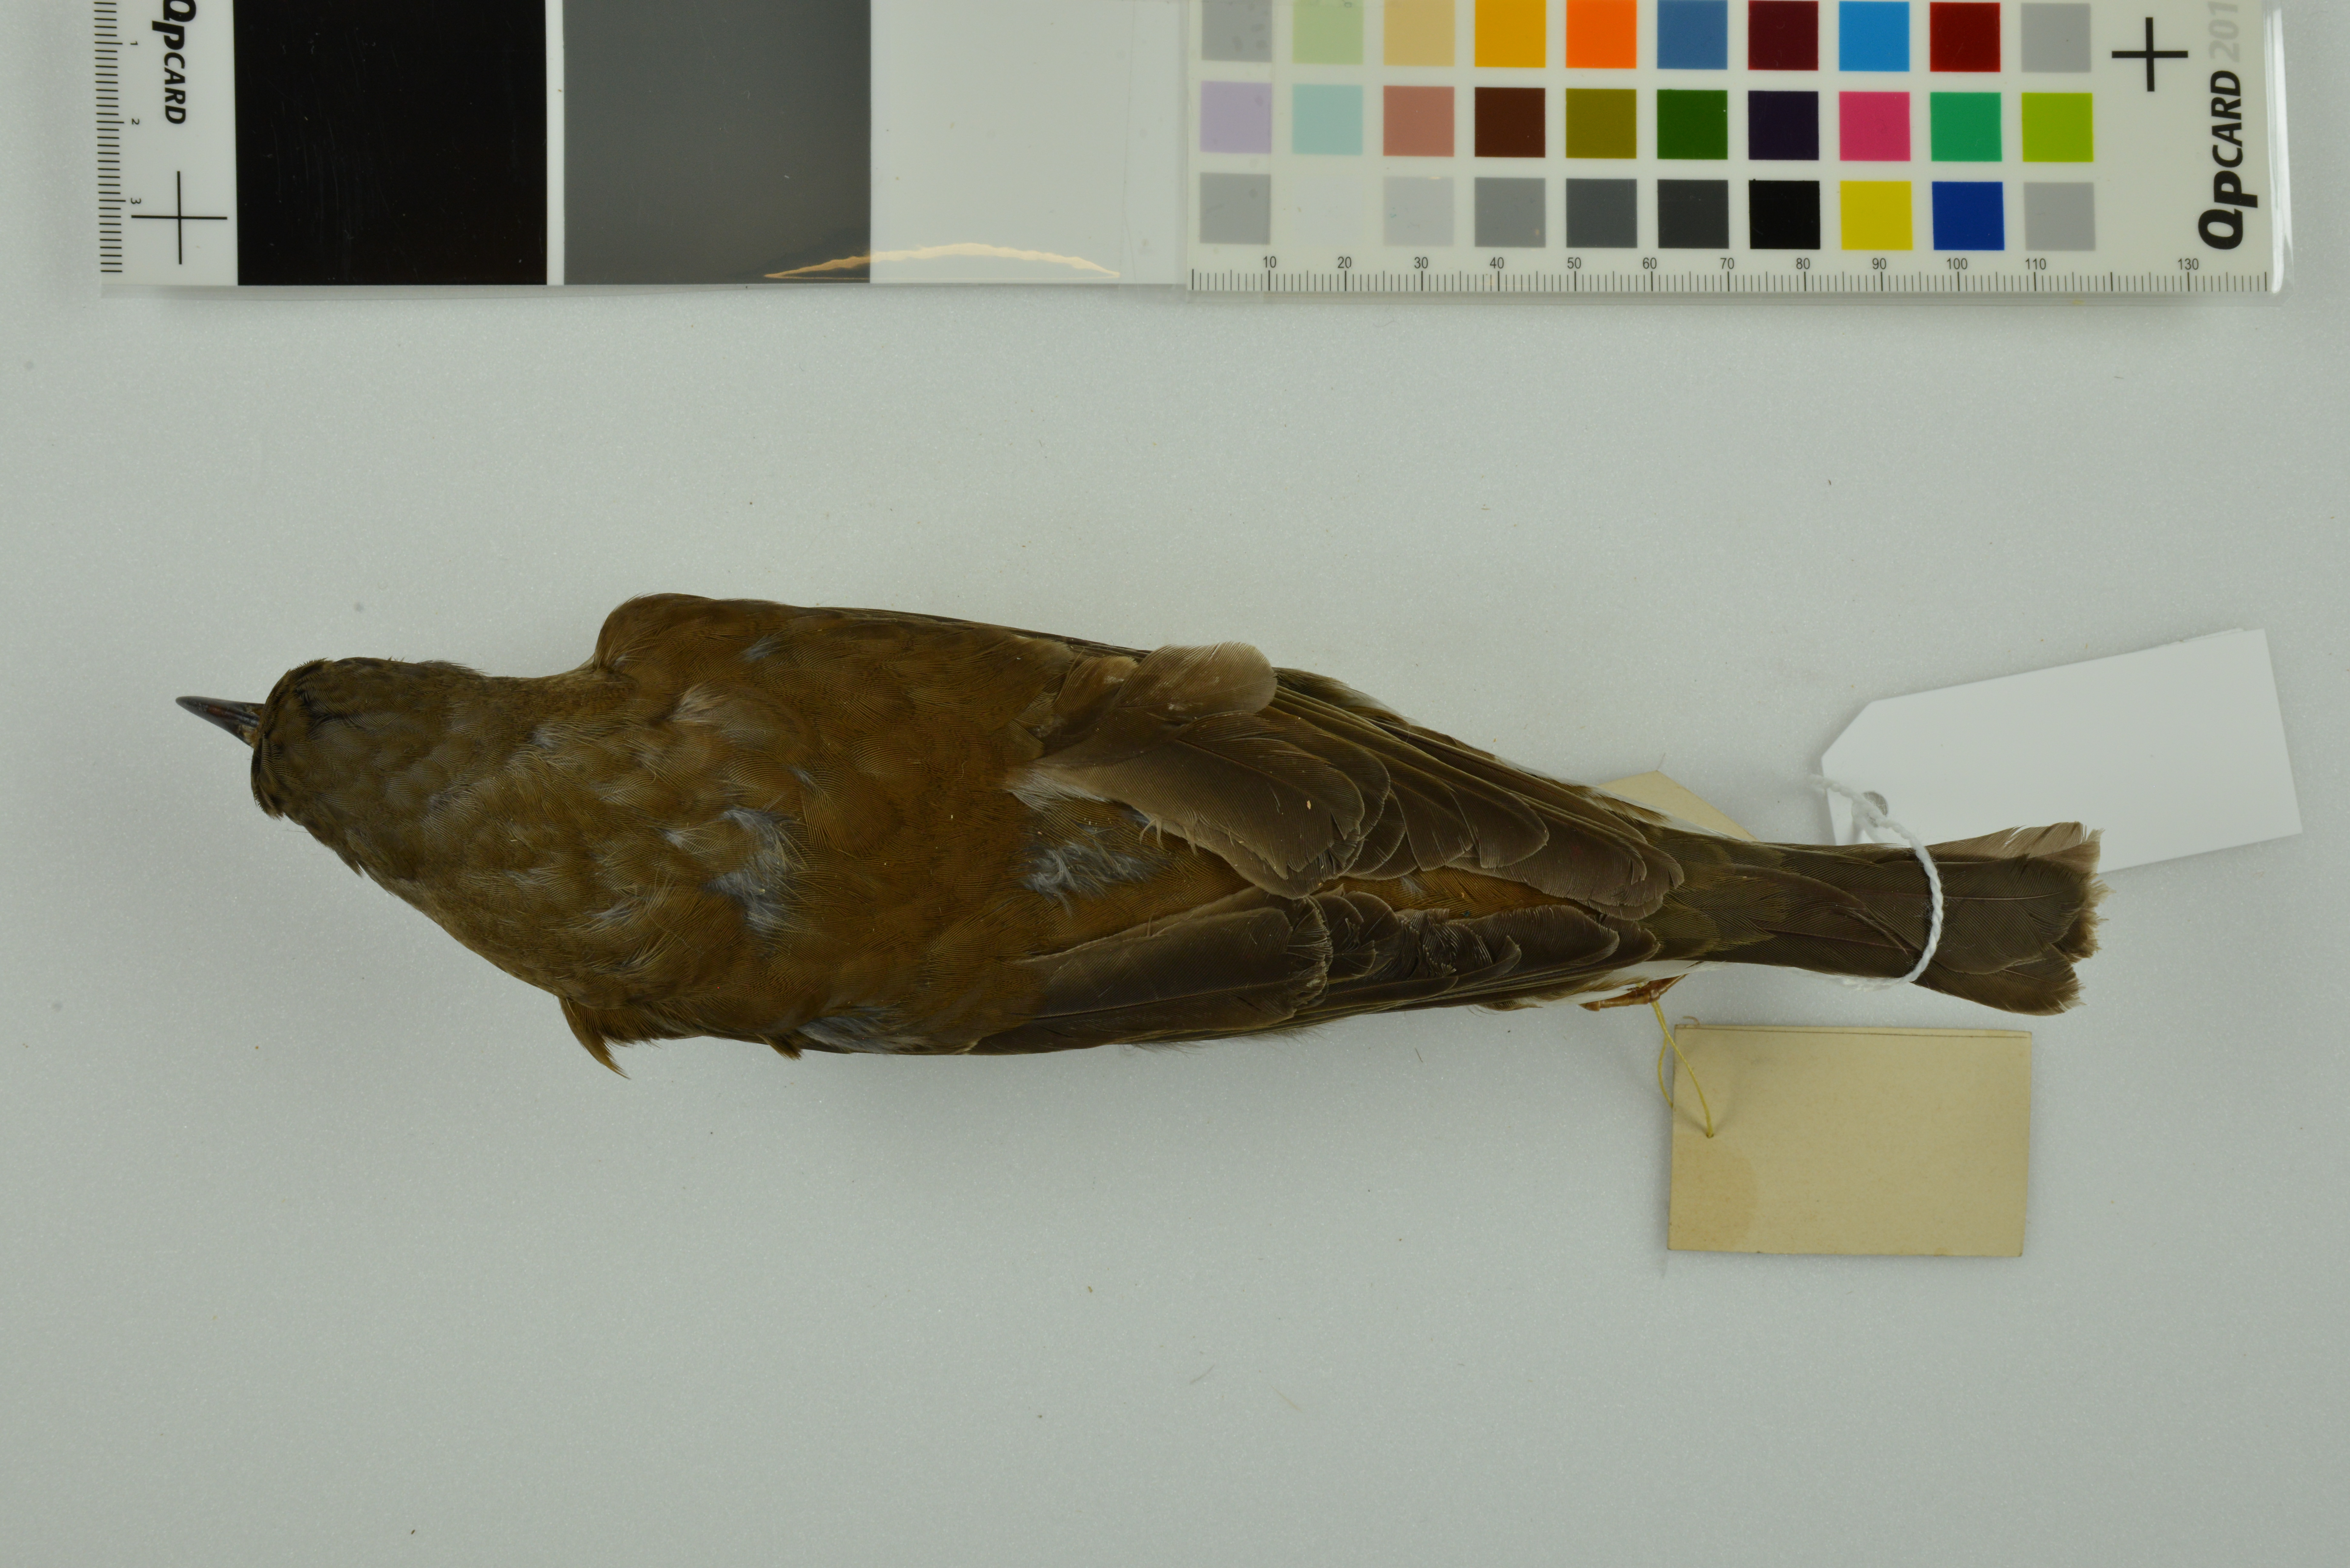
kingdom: Animalia
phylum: Chordata
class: Aves
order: Passeriformes
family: Turdidae
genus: Turdus
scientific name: Turdus pallidus
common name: Pale thrush
